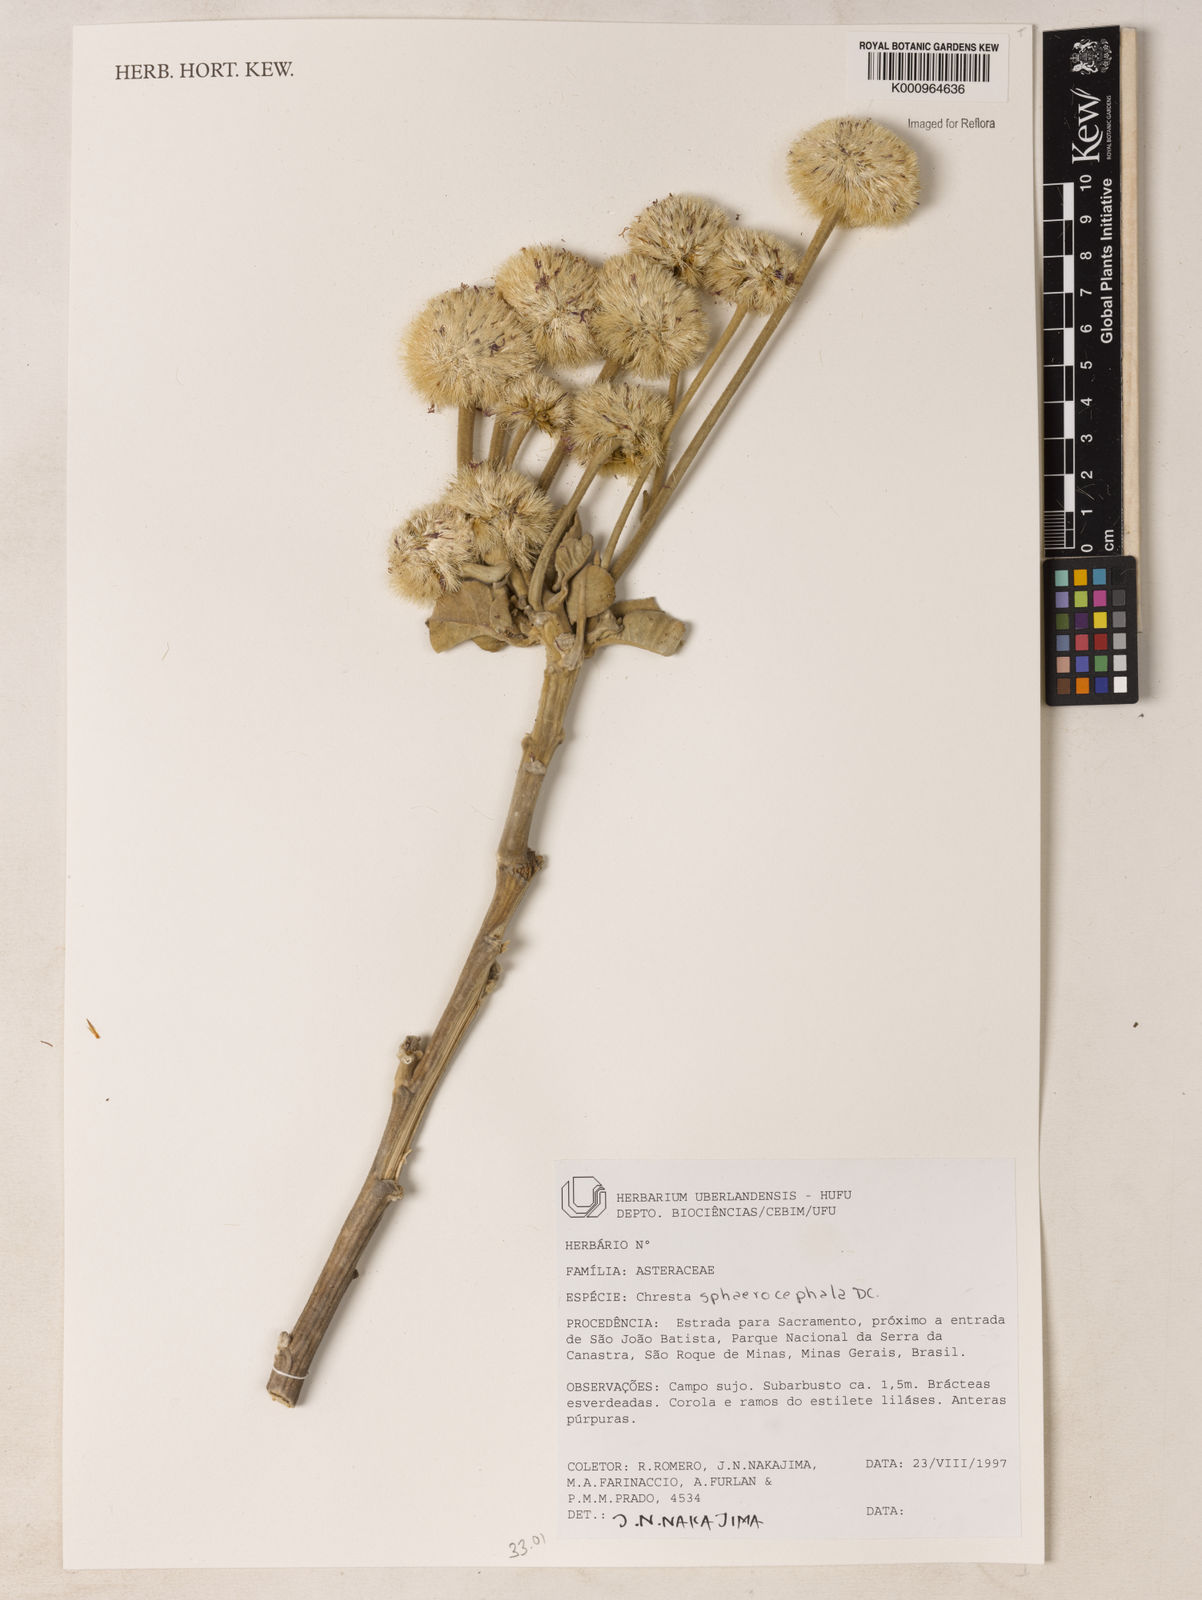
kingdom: Plantae
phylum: Tracheophyta
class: Magnoliopsida
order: Asterales
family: Asteraceae
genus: Chresta
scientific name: Chresta sphaerocephala
